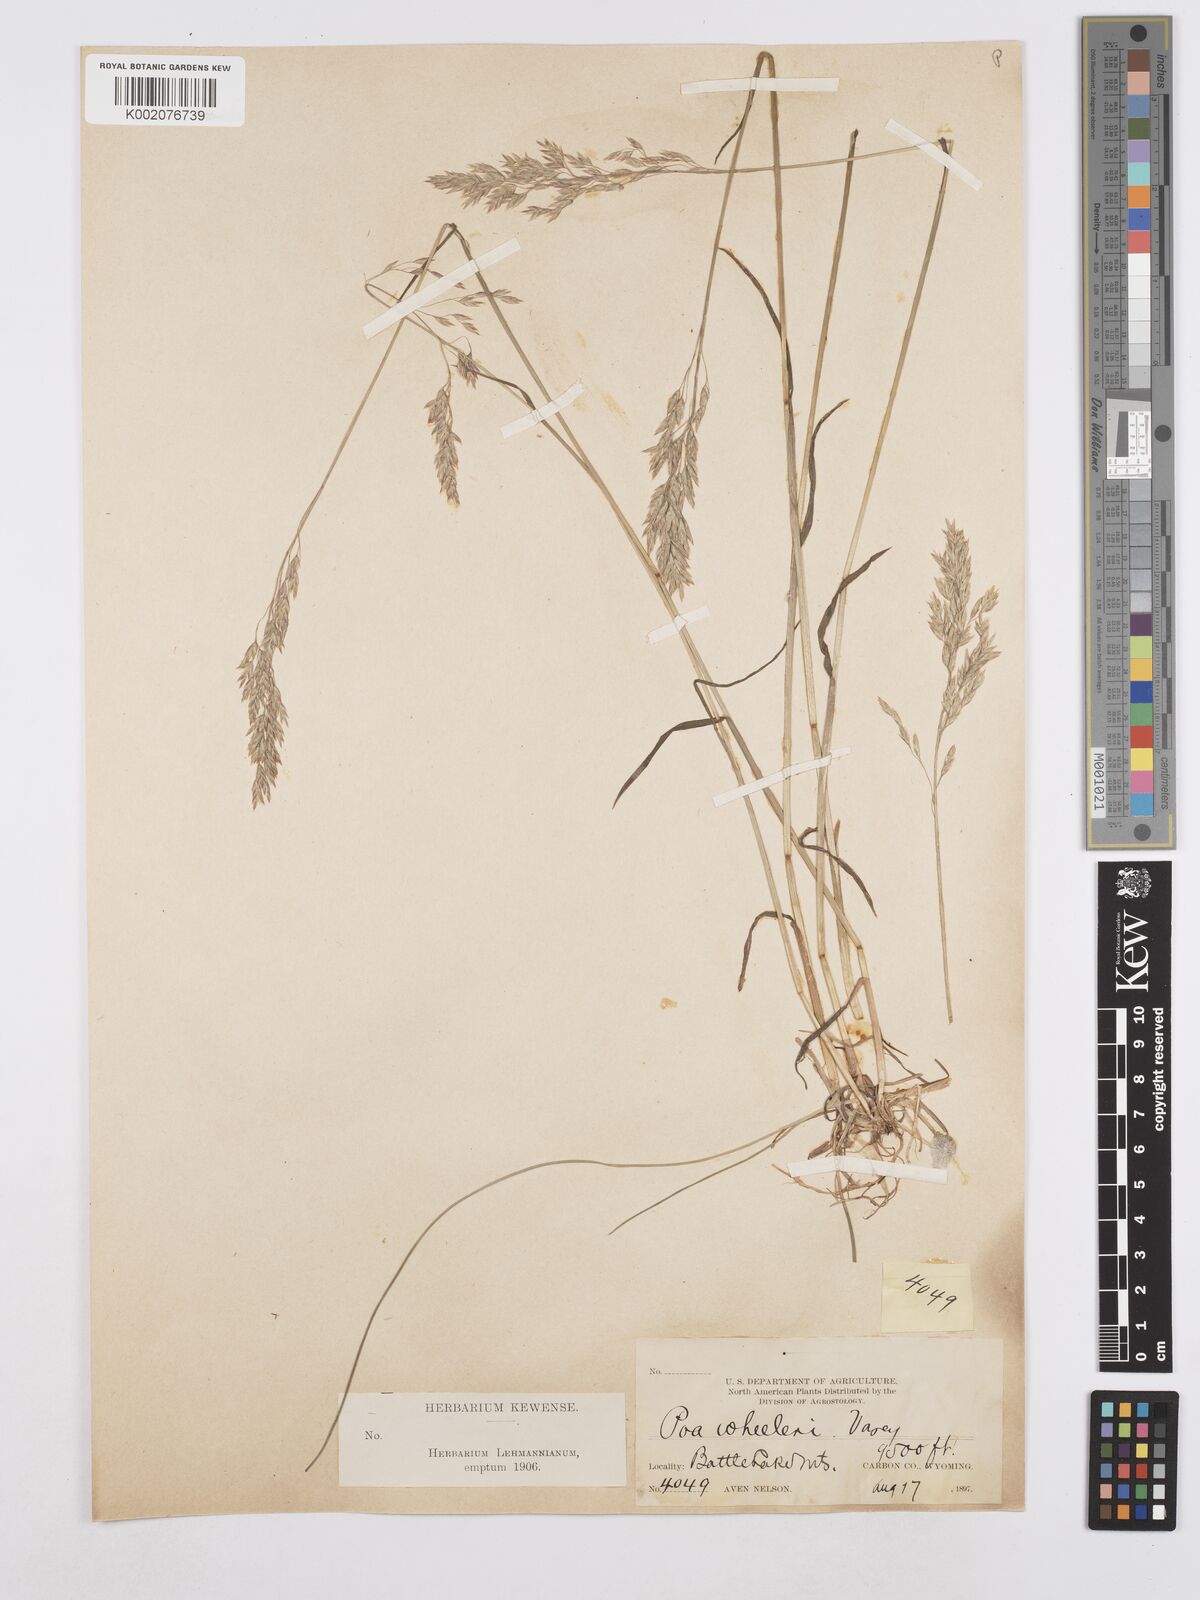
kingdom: Plantae
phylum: Tracheophyta
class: Liliopsida
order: Poales
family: Poaceae
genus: Poa
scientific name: Poa wheeleri
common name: Wheeler's bluegrass
